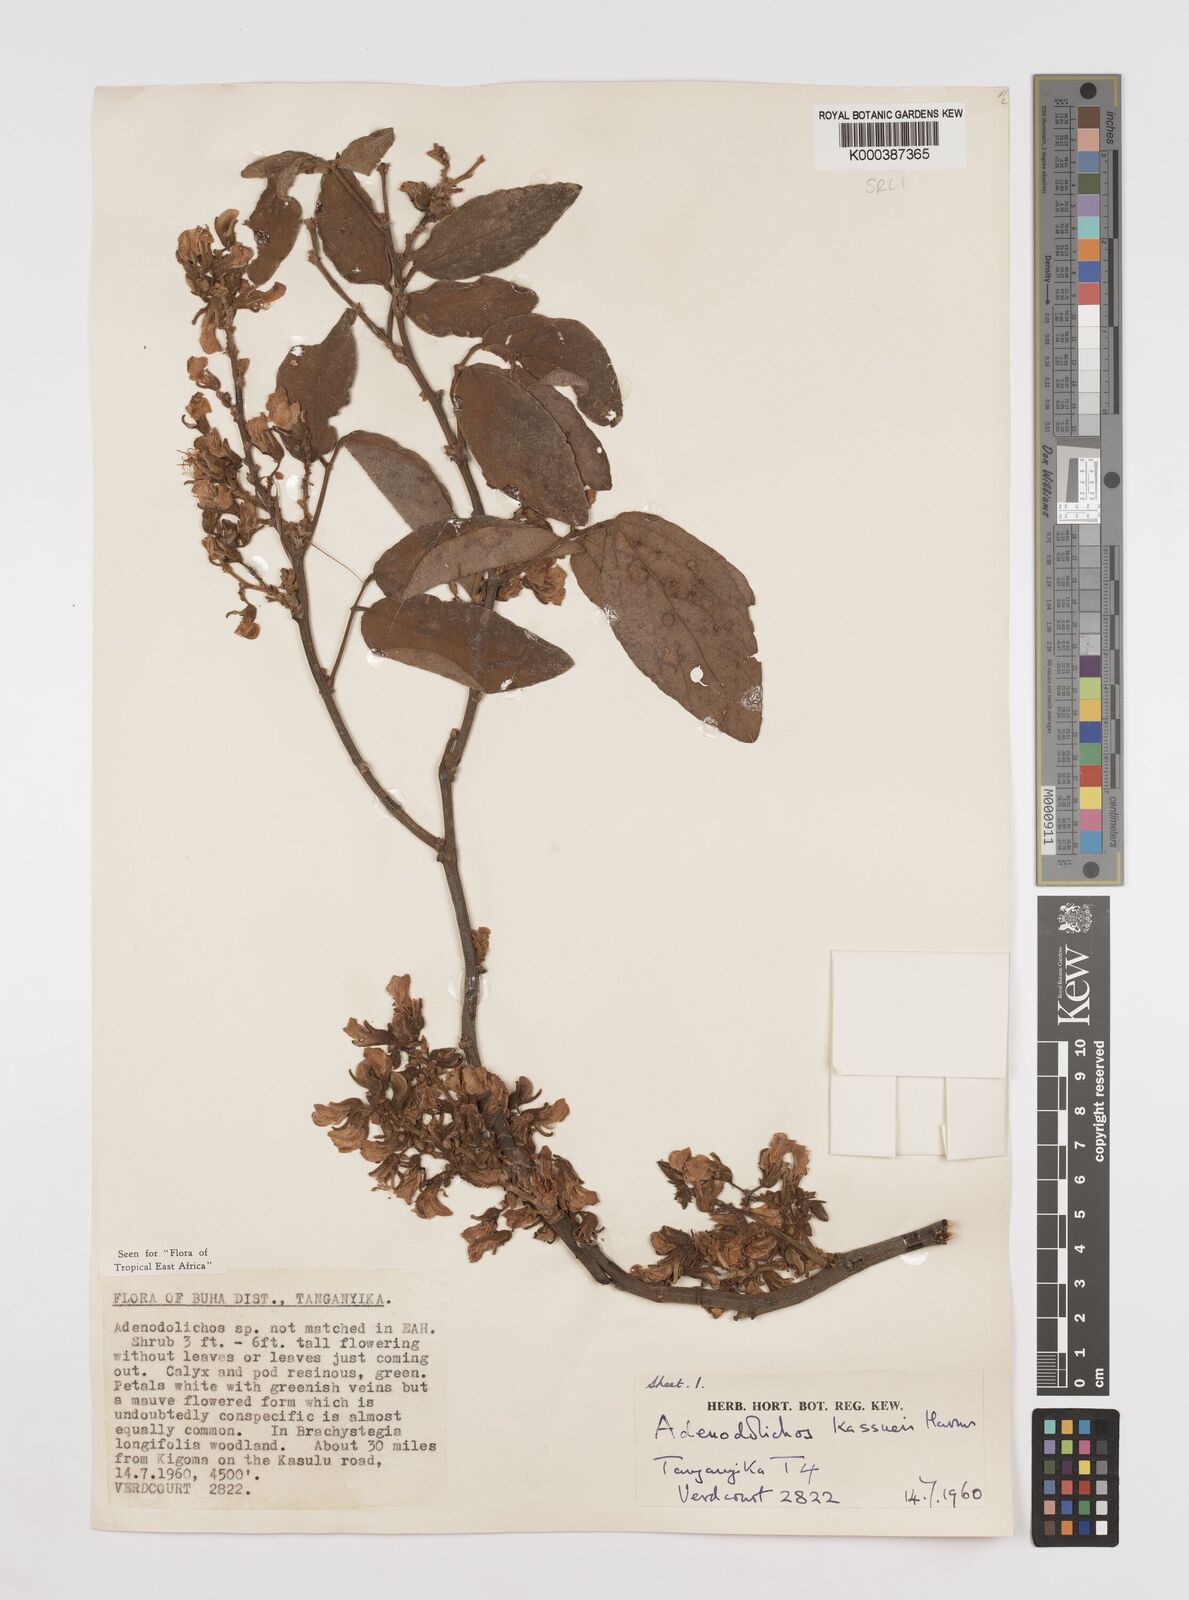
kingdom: Plantae
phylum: Tracheophyta
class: Magnoliopsida
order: Fabales
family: Fabaceae
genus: Adenodolichos
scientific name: Adenodolichos kaessneri
